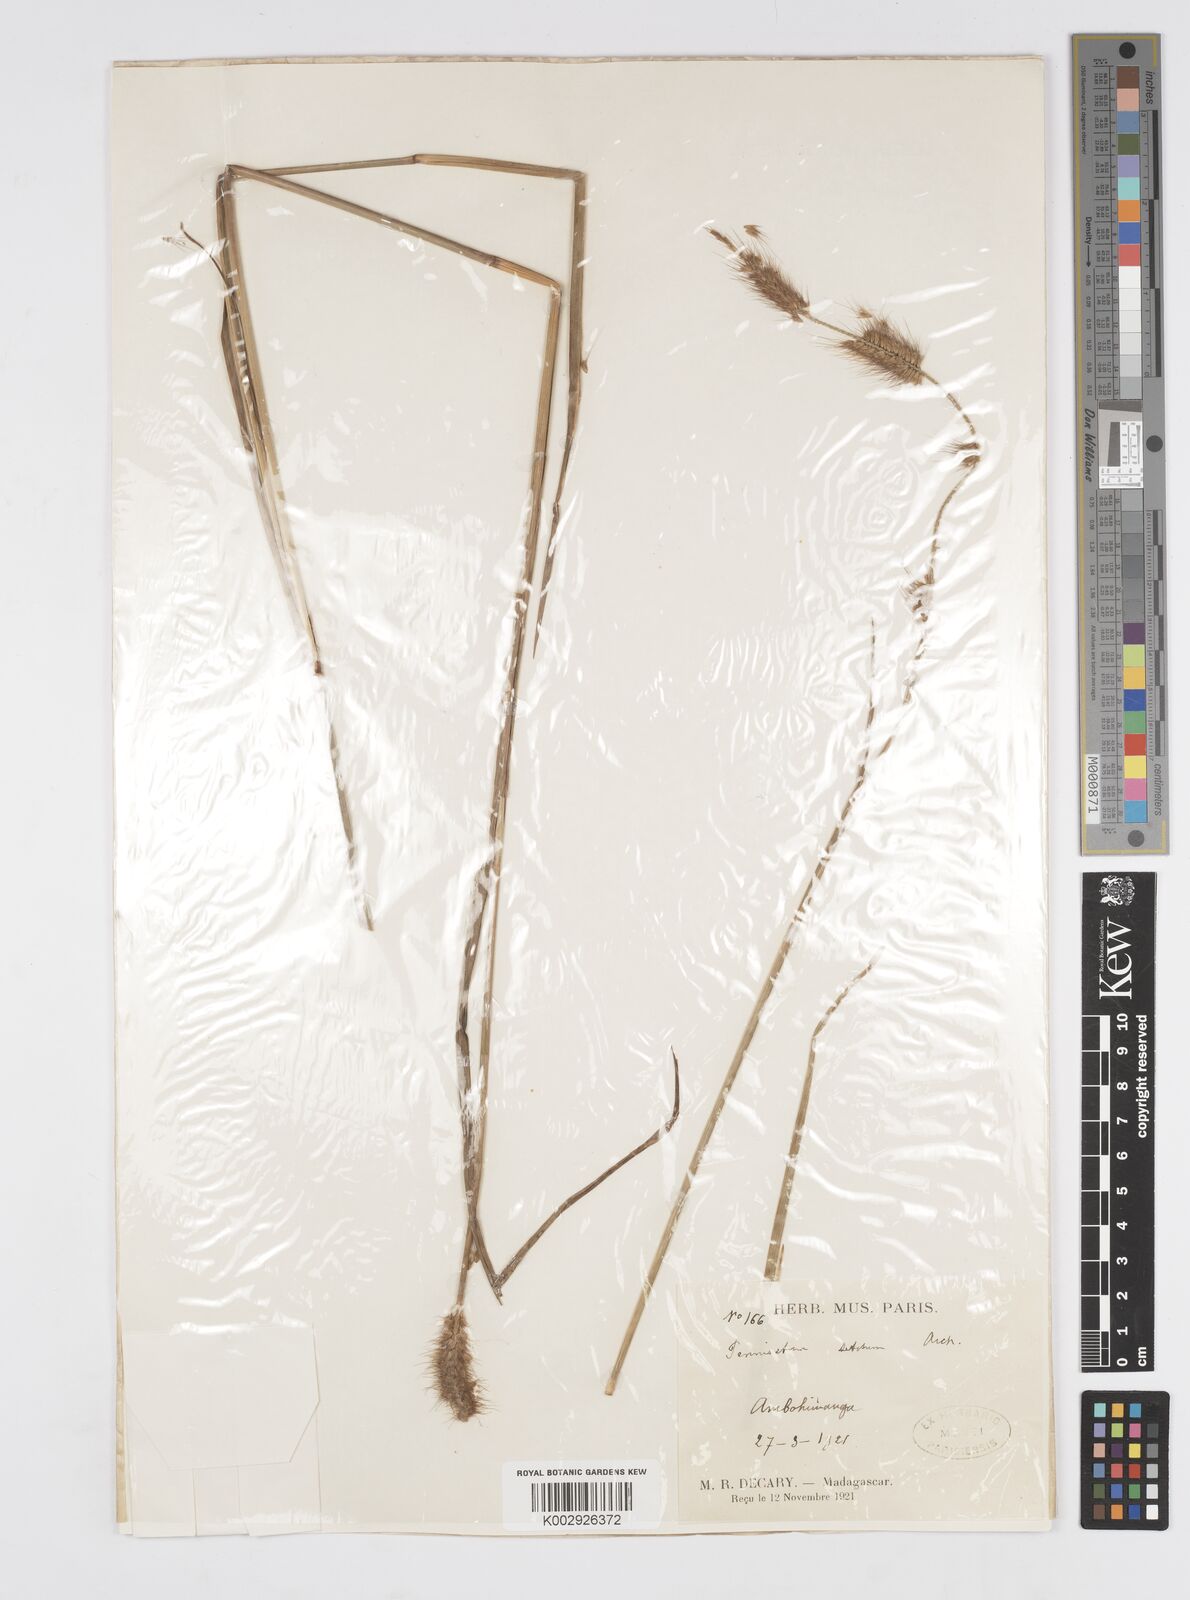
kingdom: Plantae
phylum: Tracheophyta
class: Liliopsida
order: Poales
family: Poaceae
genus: Setaria
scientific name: Setaria parviflora
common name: Knotroot bristle-grass
